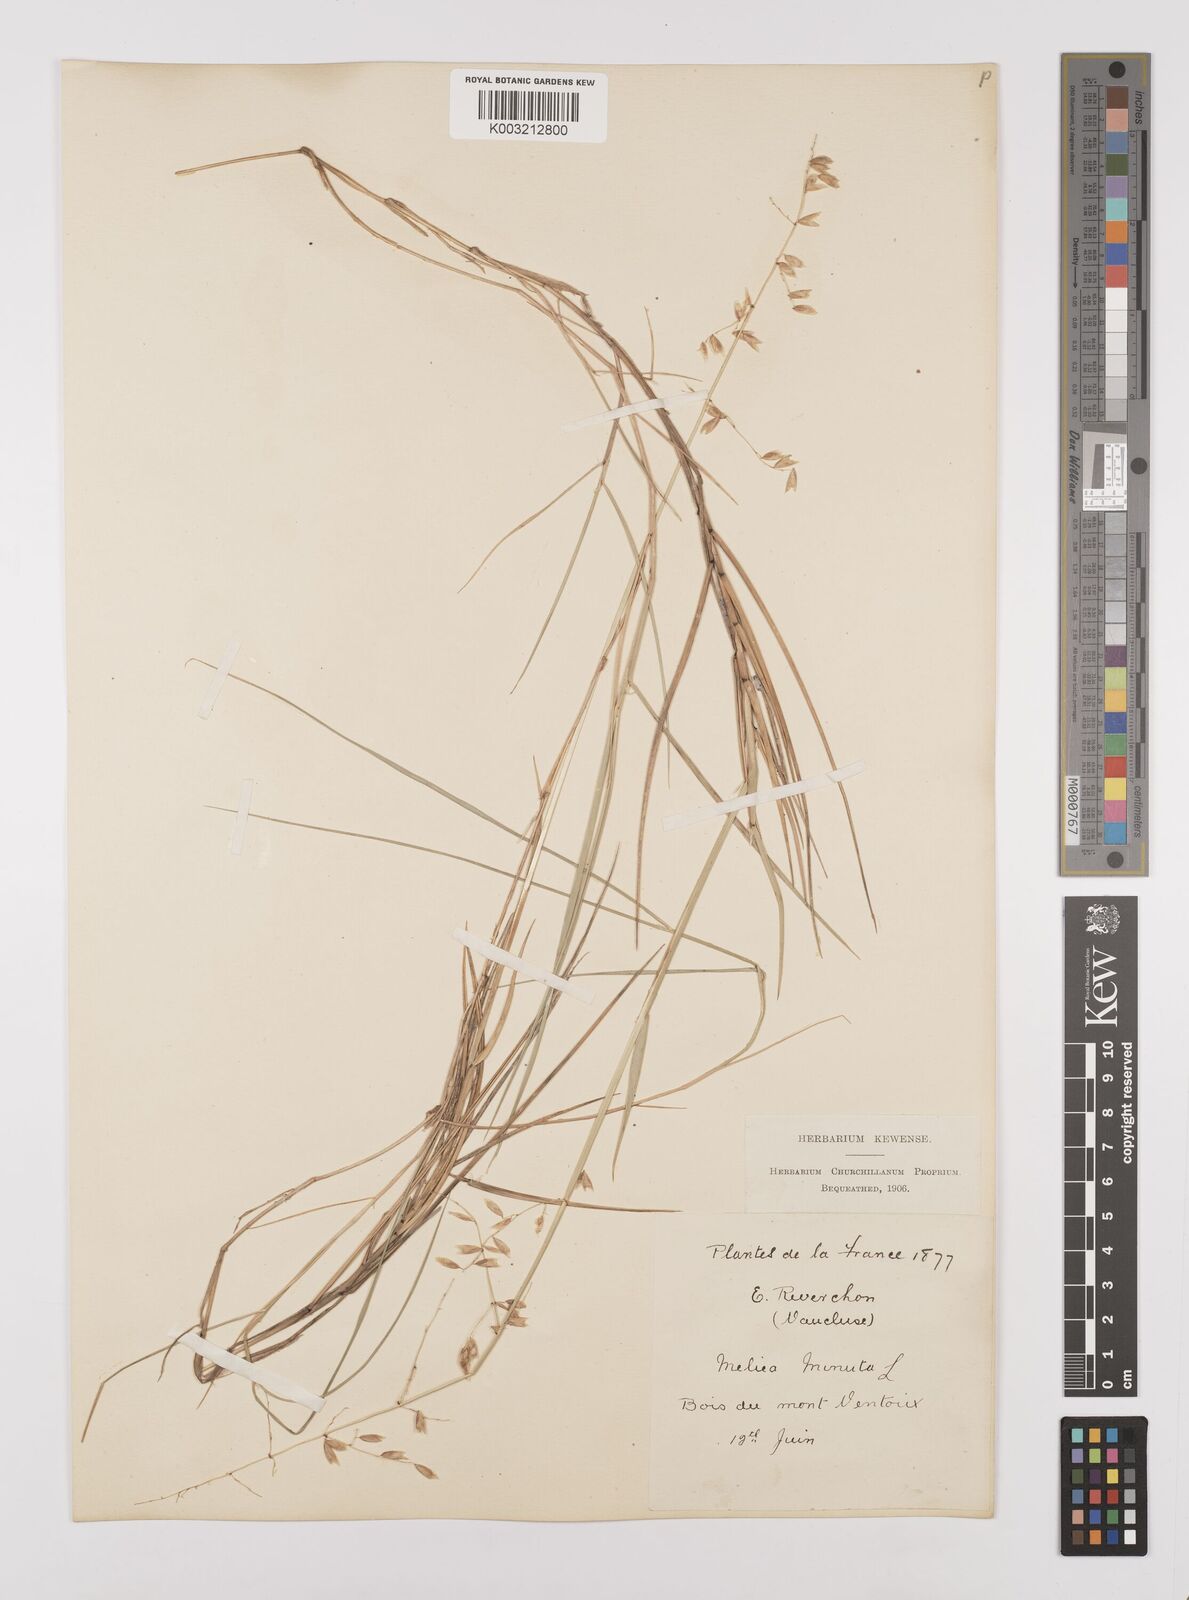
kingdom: Plantae
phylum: Tracheophyta
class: Liliopsida
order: Poales
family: Poaceae
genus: Melica
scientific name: Melica minuta
